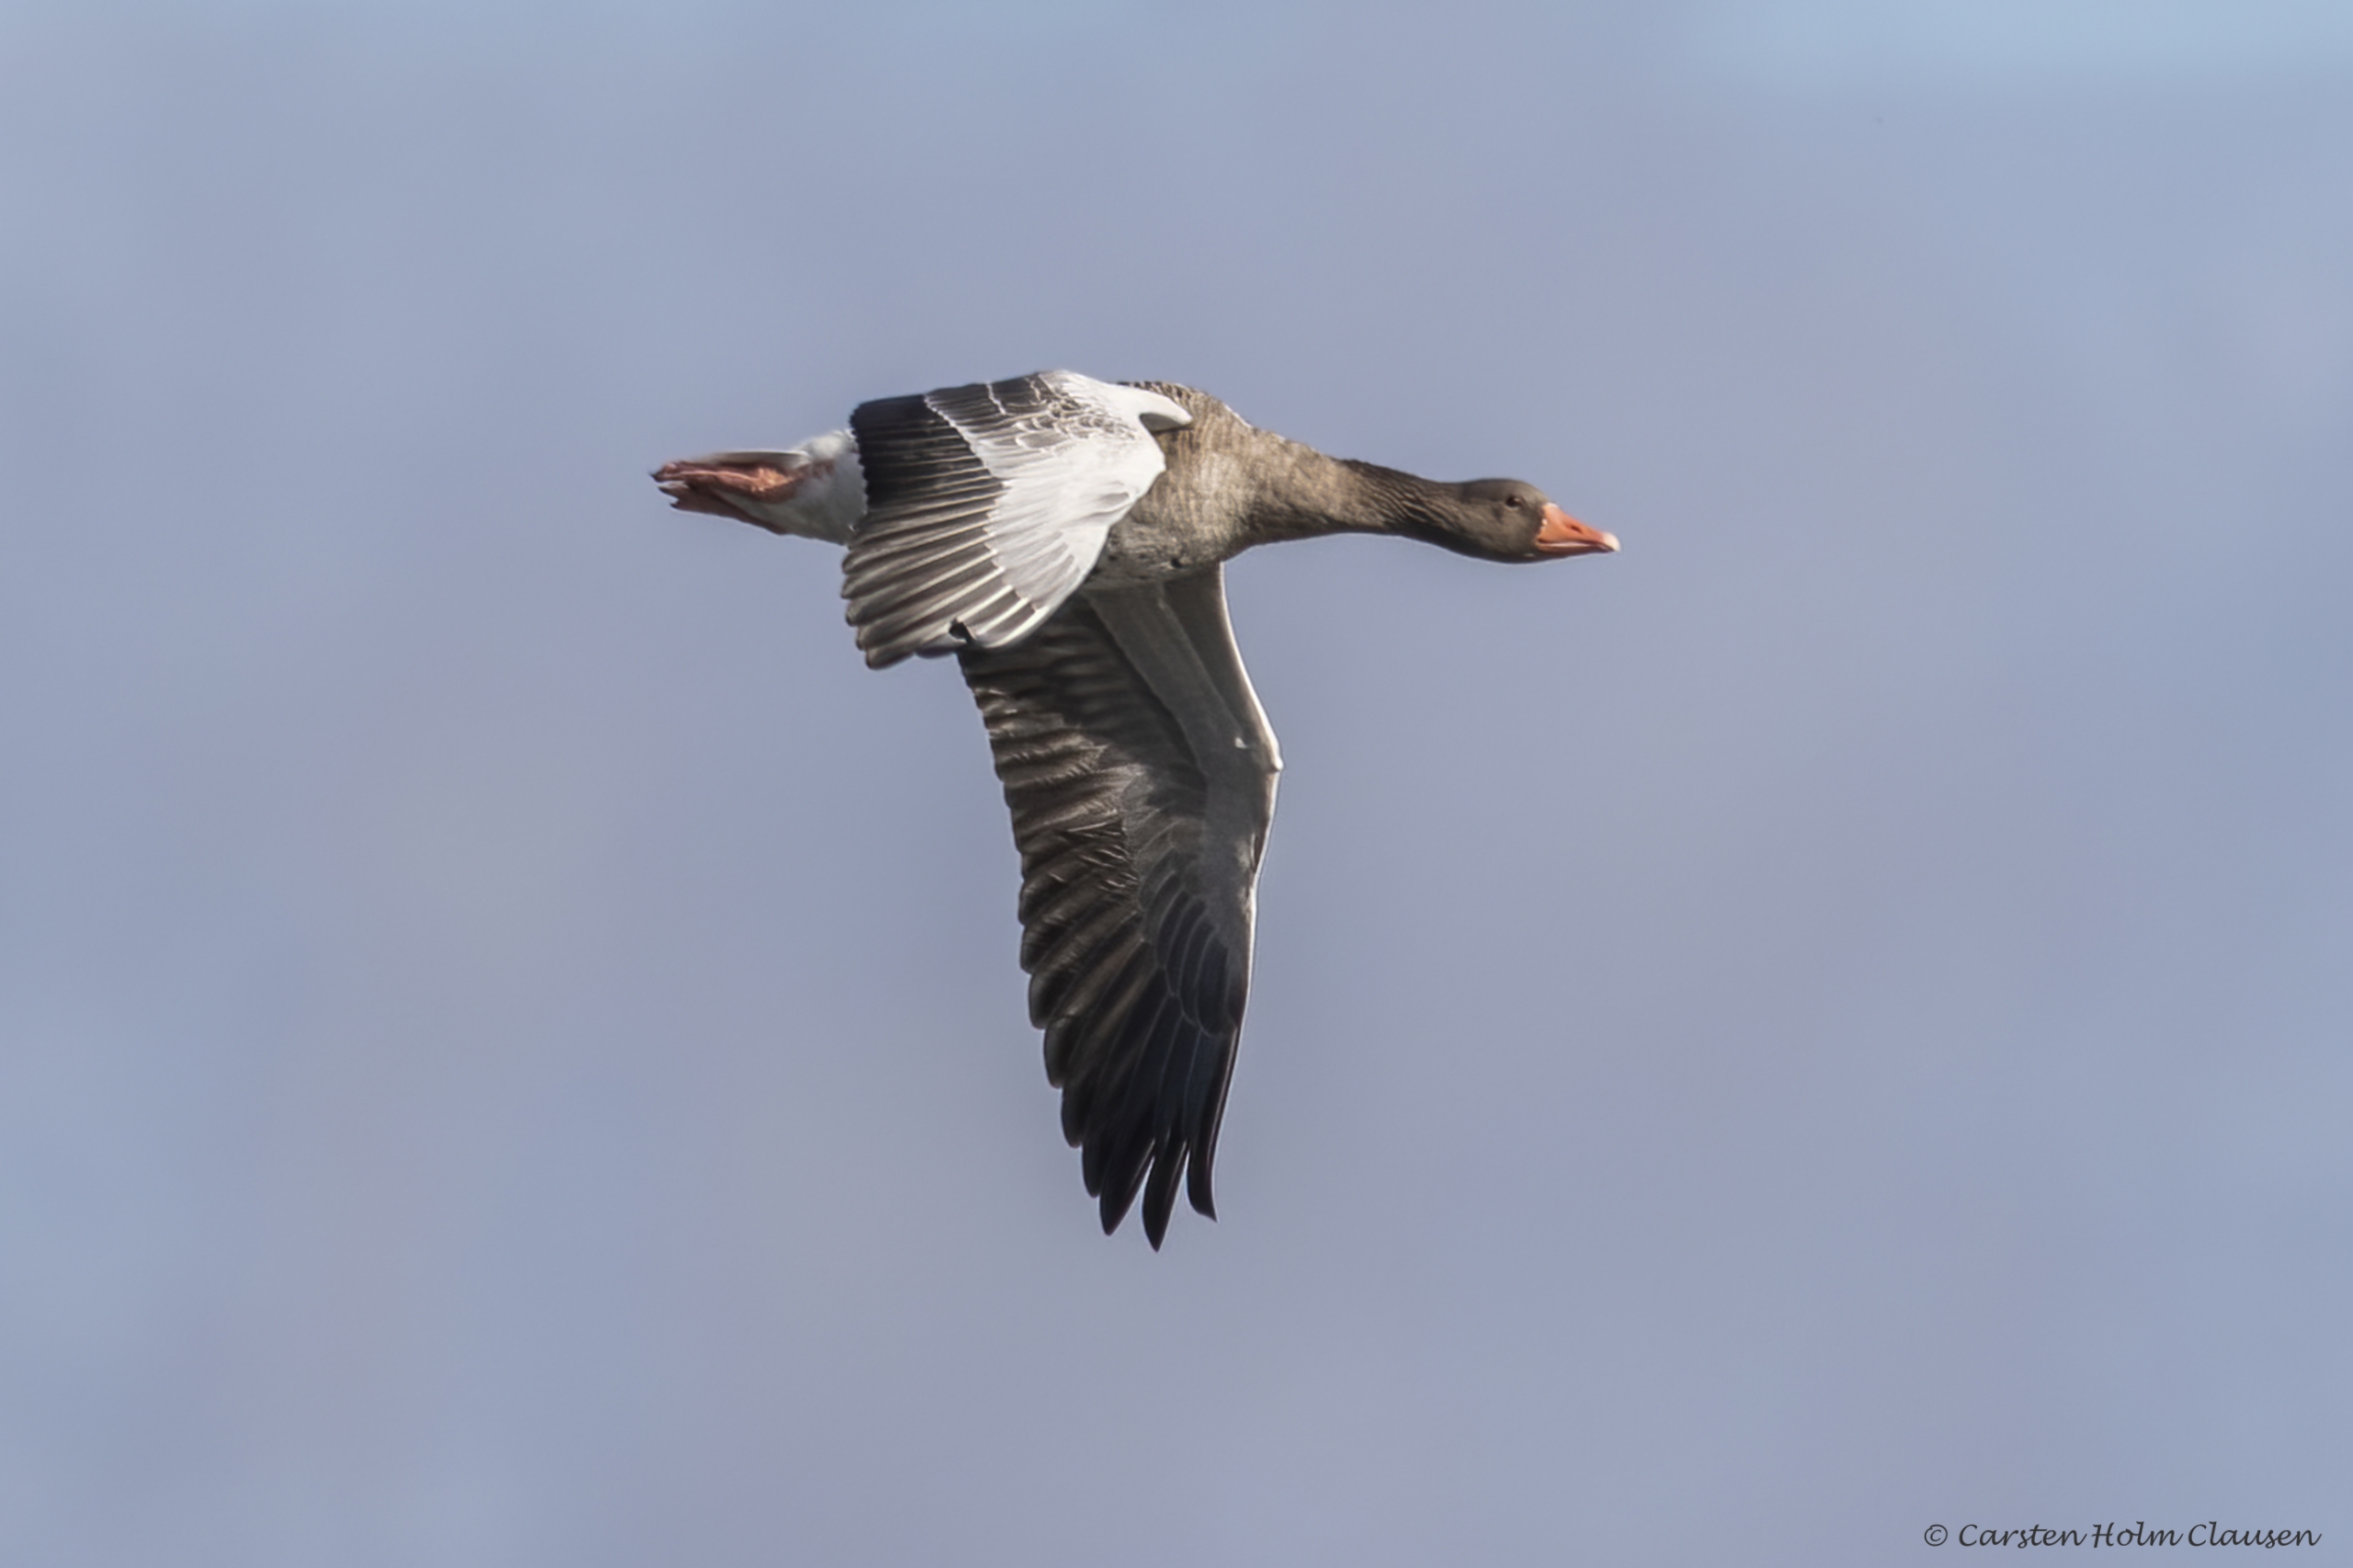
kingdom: Animalia
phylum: Chordata
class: Aves
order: Anseriformes
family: Anatidae
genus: Anser
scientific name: Anser anser
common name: Grågås
